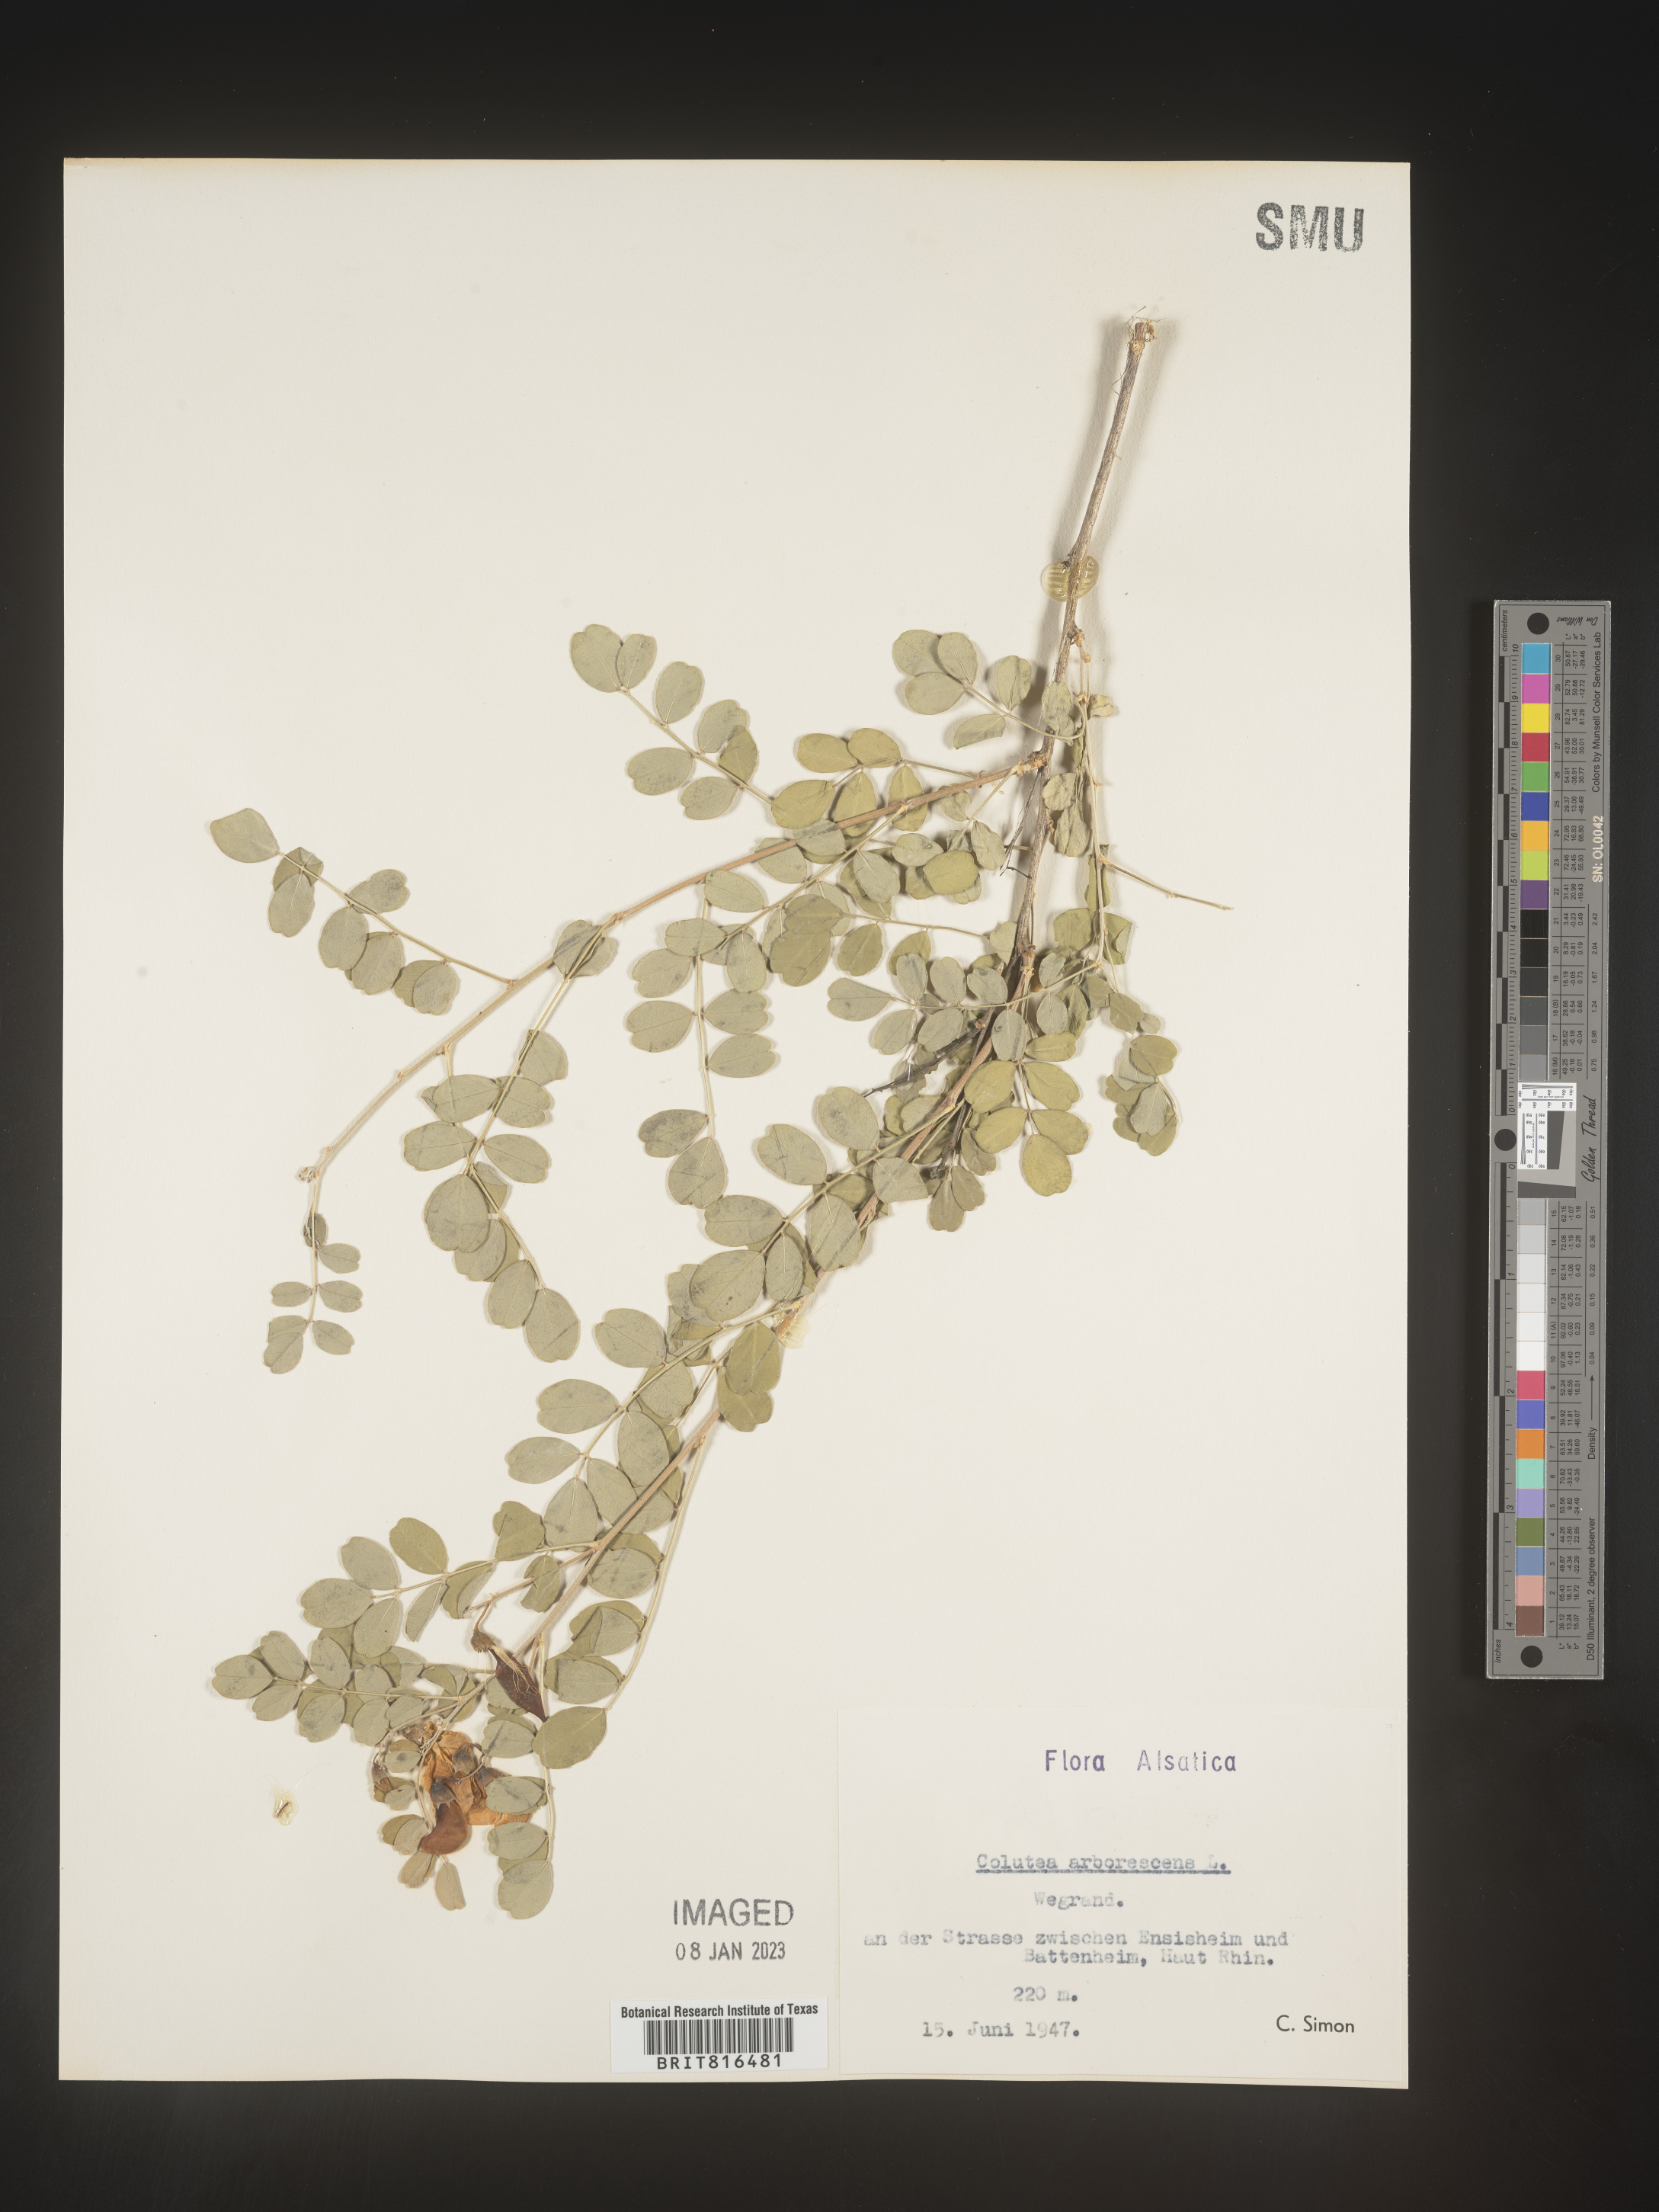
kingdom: Plantae
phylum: Tracheophyta
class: Magnoliopsida
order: Fabales
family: Fabaceae
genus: Colutea
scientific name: Colutea
